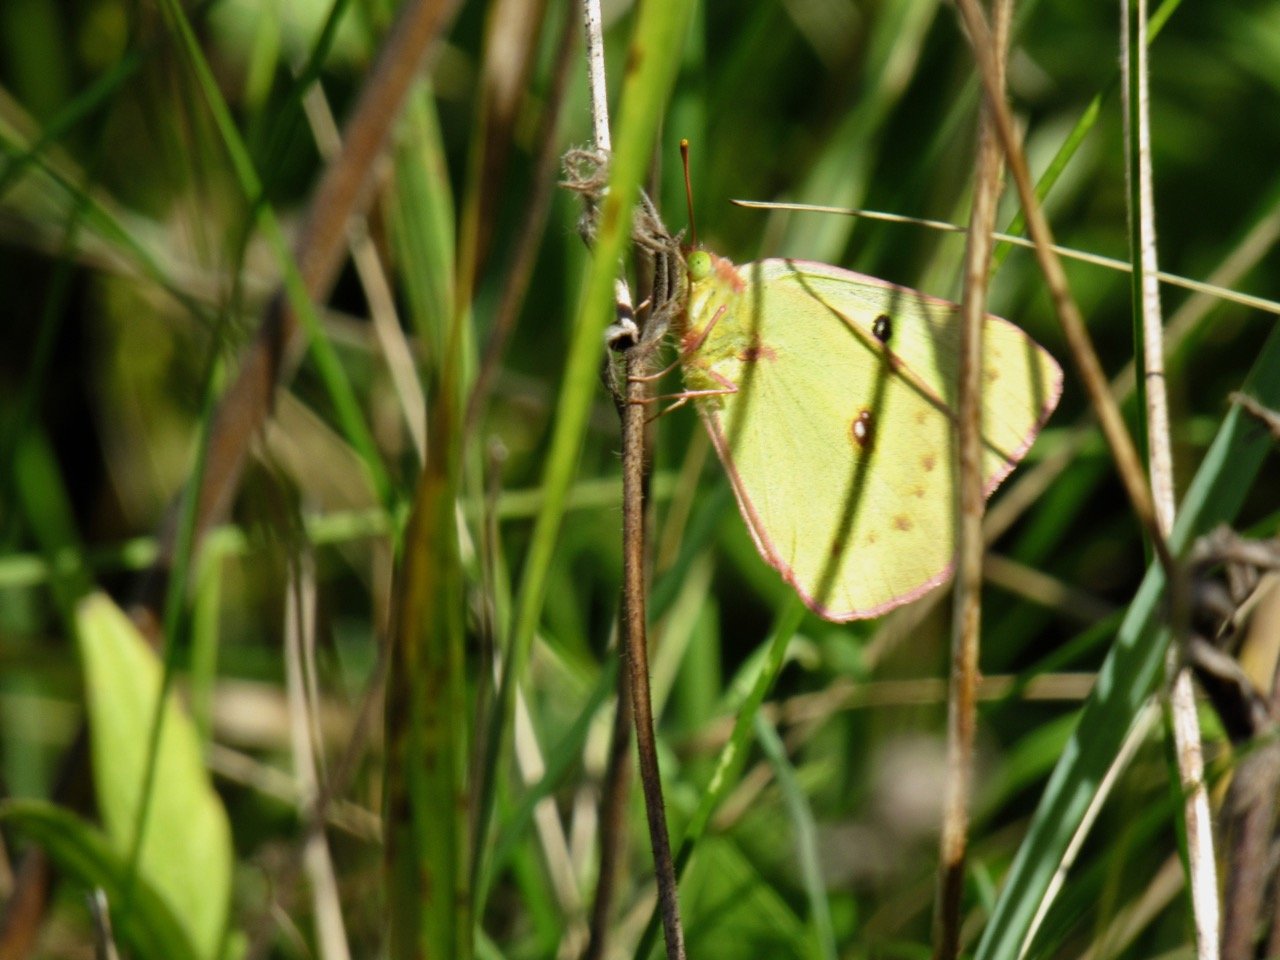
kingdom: Animalia
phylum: Arthropoda
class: Insecta
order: Lepidoptera
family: Pieridae
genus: Colias
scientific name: Colias philodice
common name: Clouded Sulphur
